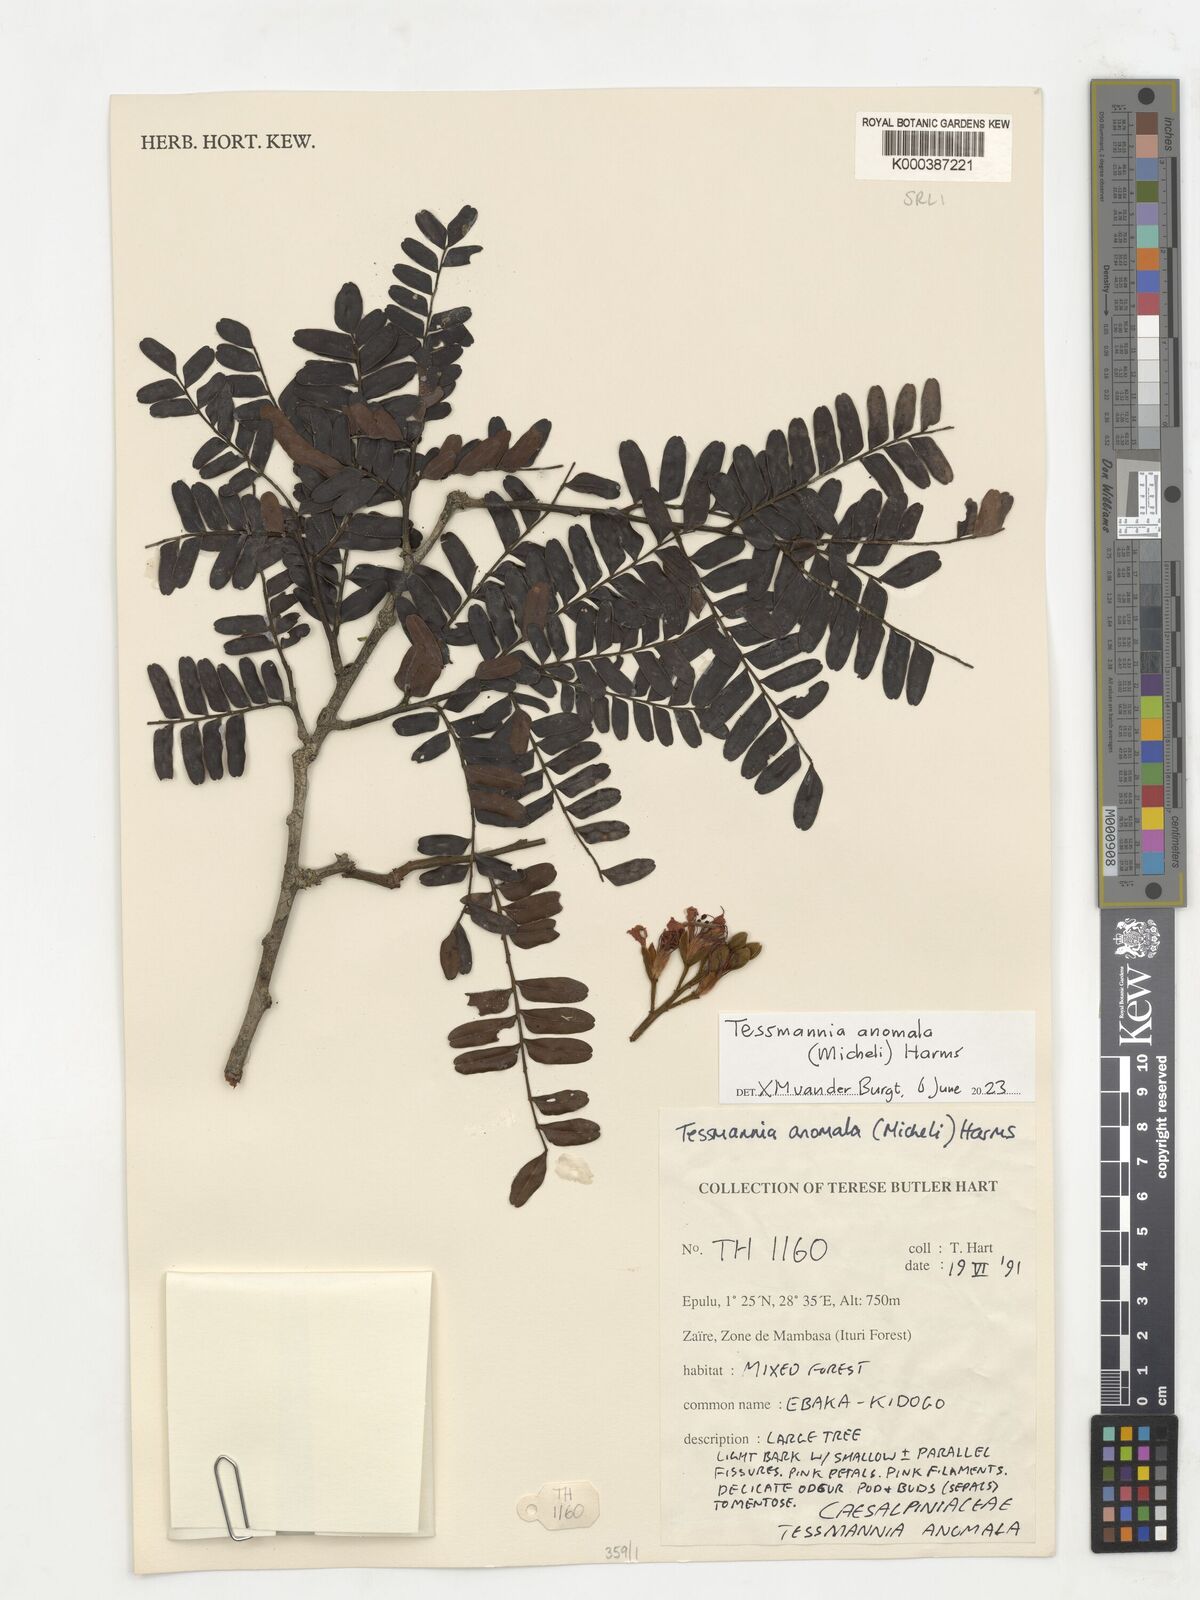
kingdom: Plantae
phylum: Tracheophyta
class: Magnoliopsida
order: Fabales
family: Fabaceae
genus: Tessmannia
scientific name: Tessmannia africana
